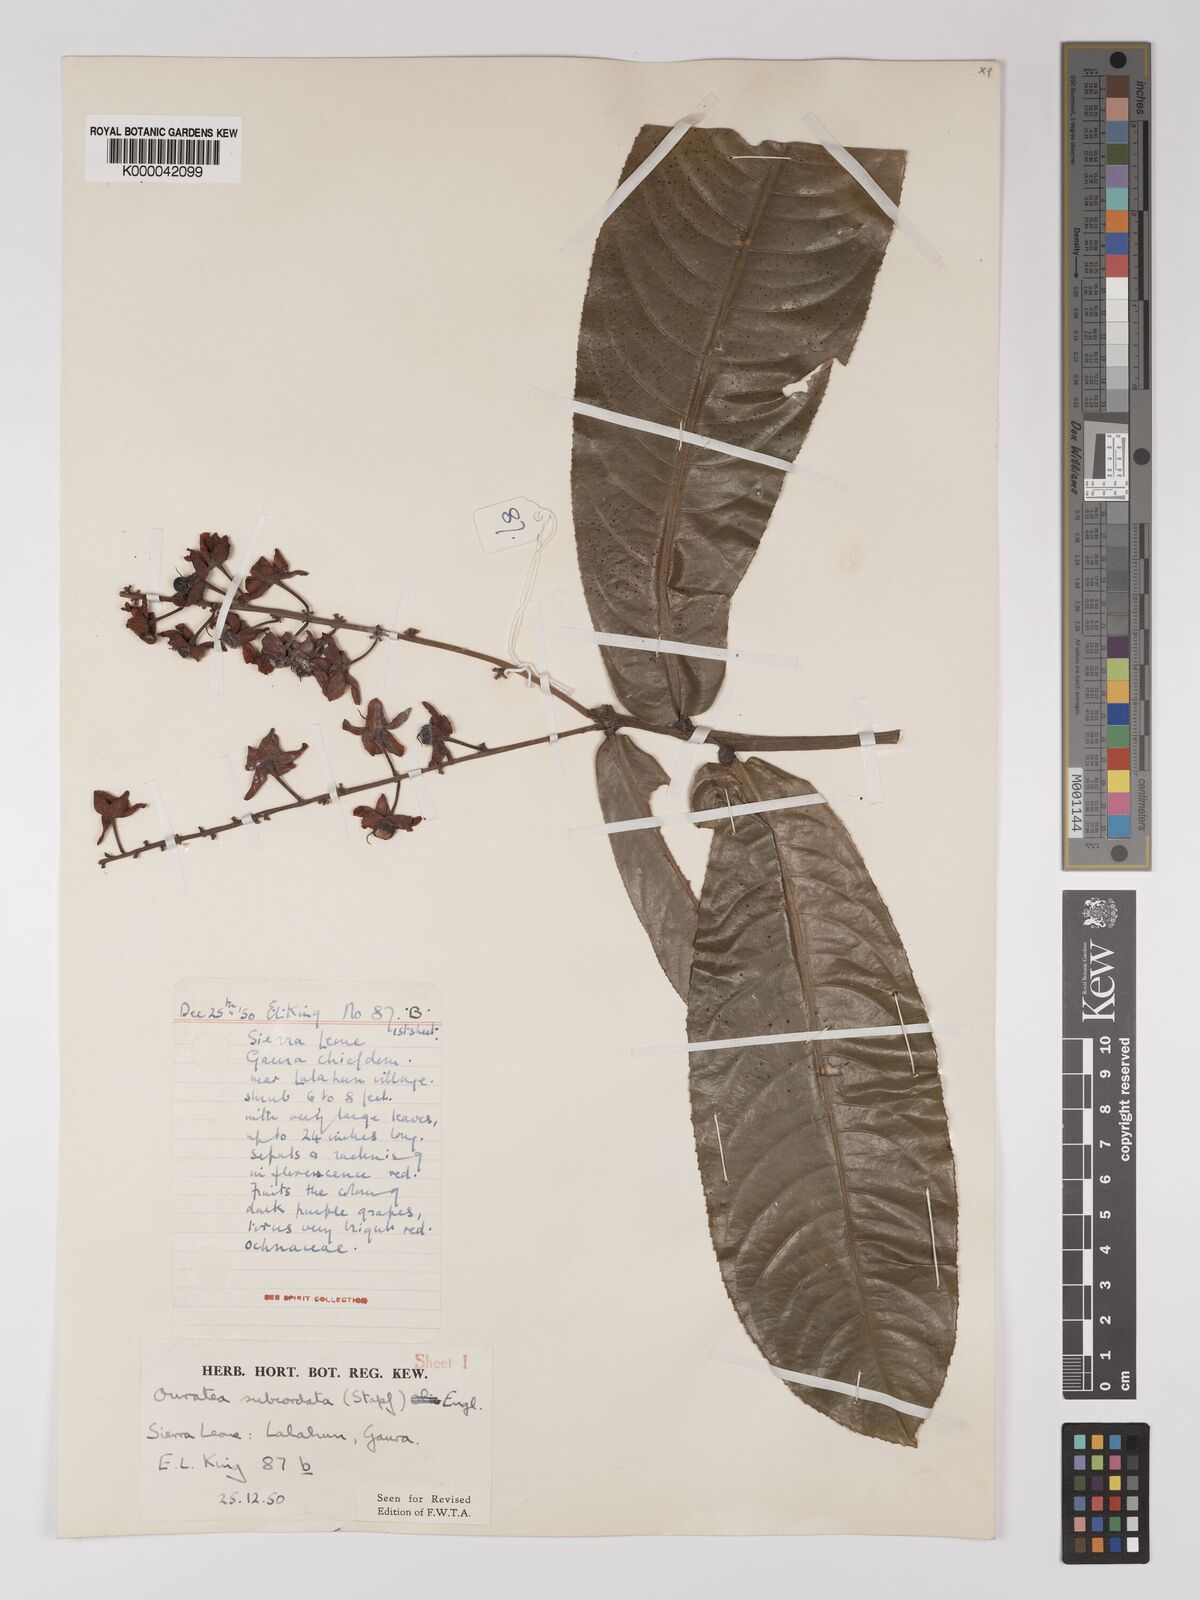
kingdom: Plantae
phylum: Tracheophyta
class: Magnoliopsida
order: Malpighiales
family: Ochnaceae
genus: Campylospermum
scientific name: Campylospermum subcordatum
